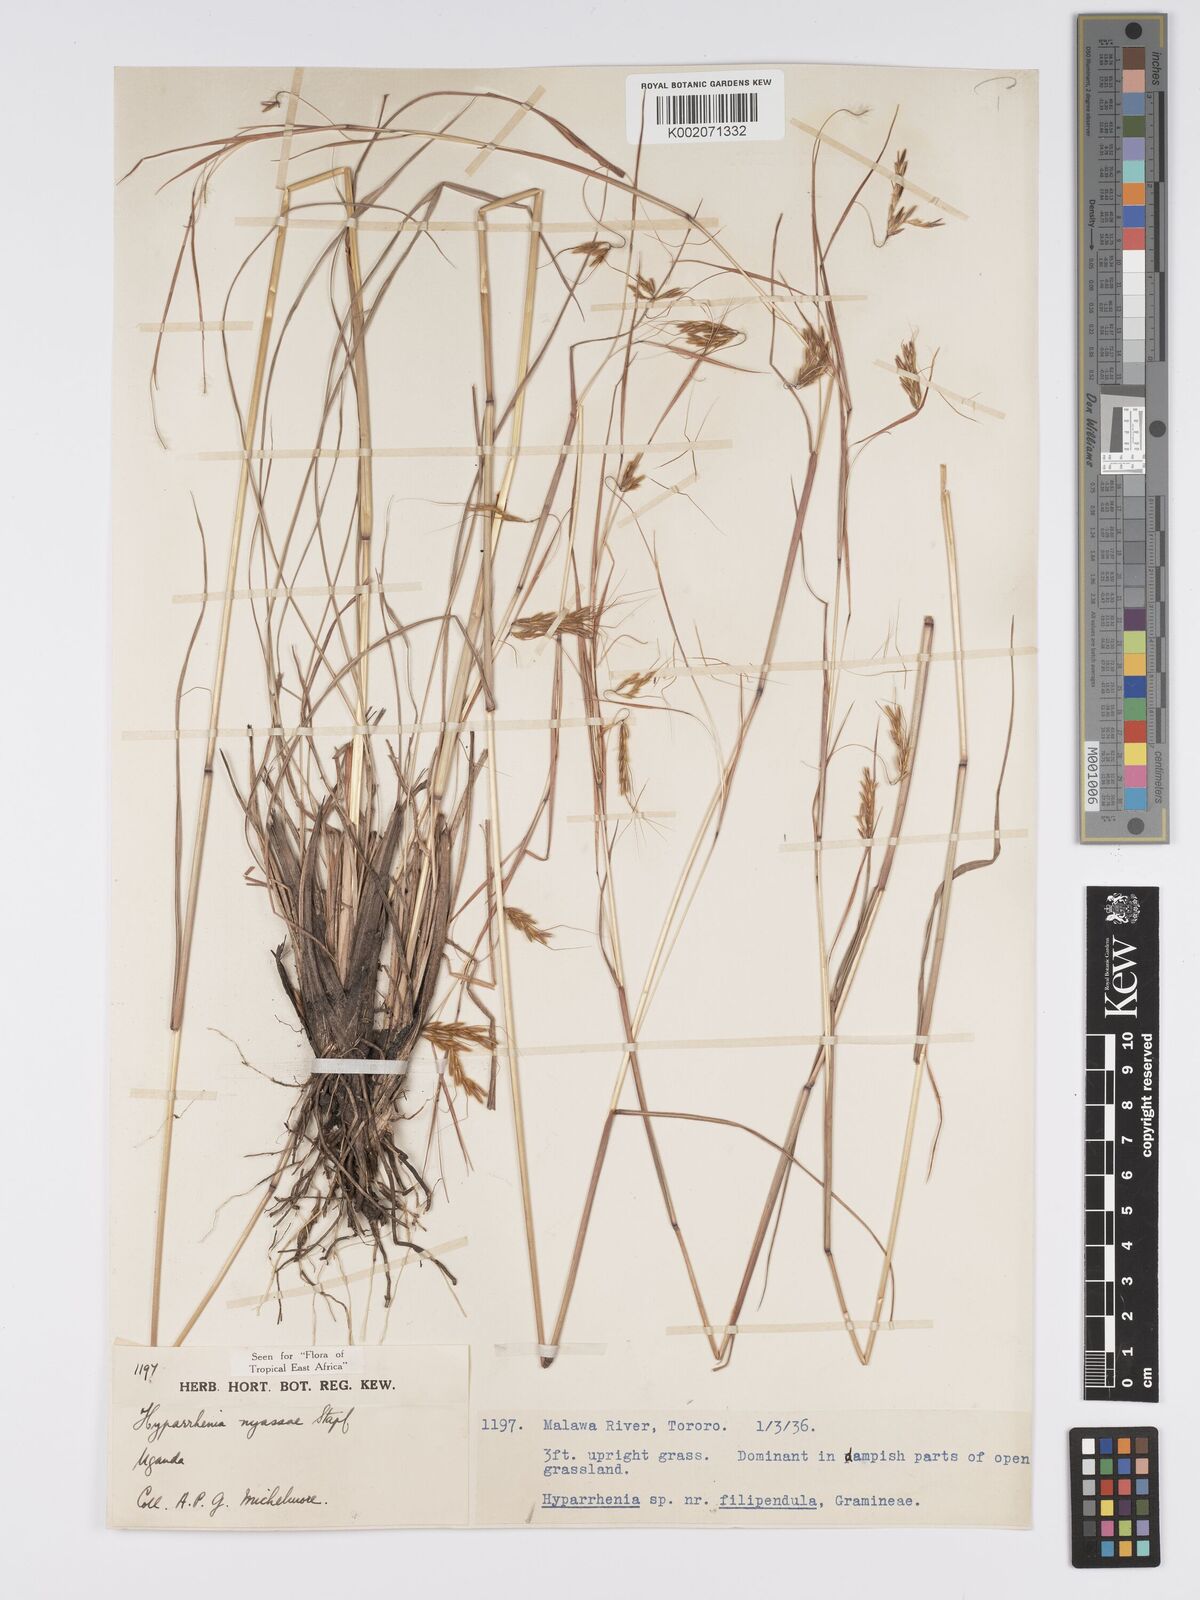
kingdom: Plantae
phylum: Tracheophyta
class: Liliopsida
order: Poales
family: Poaceae
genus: Hyparrhenia
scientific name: Hyparrhenia nyassae
